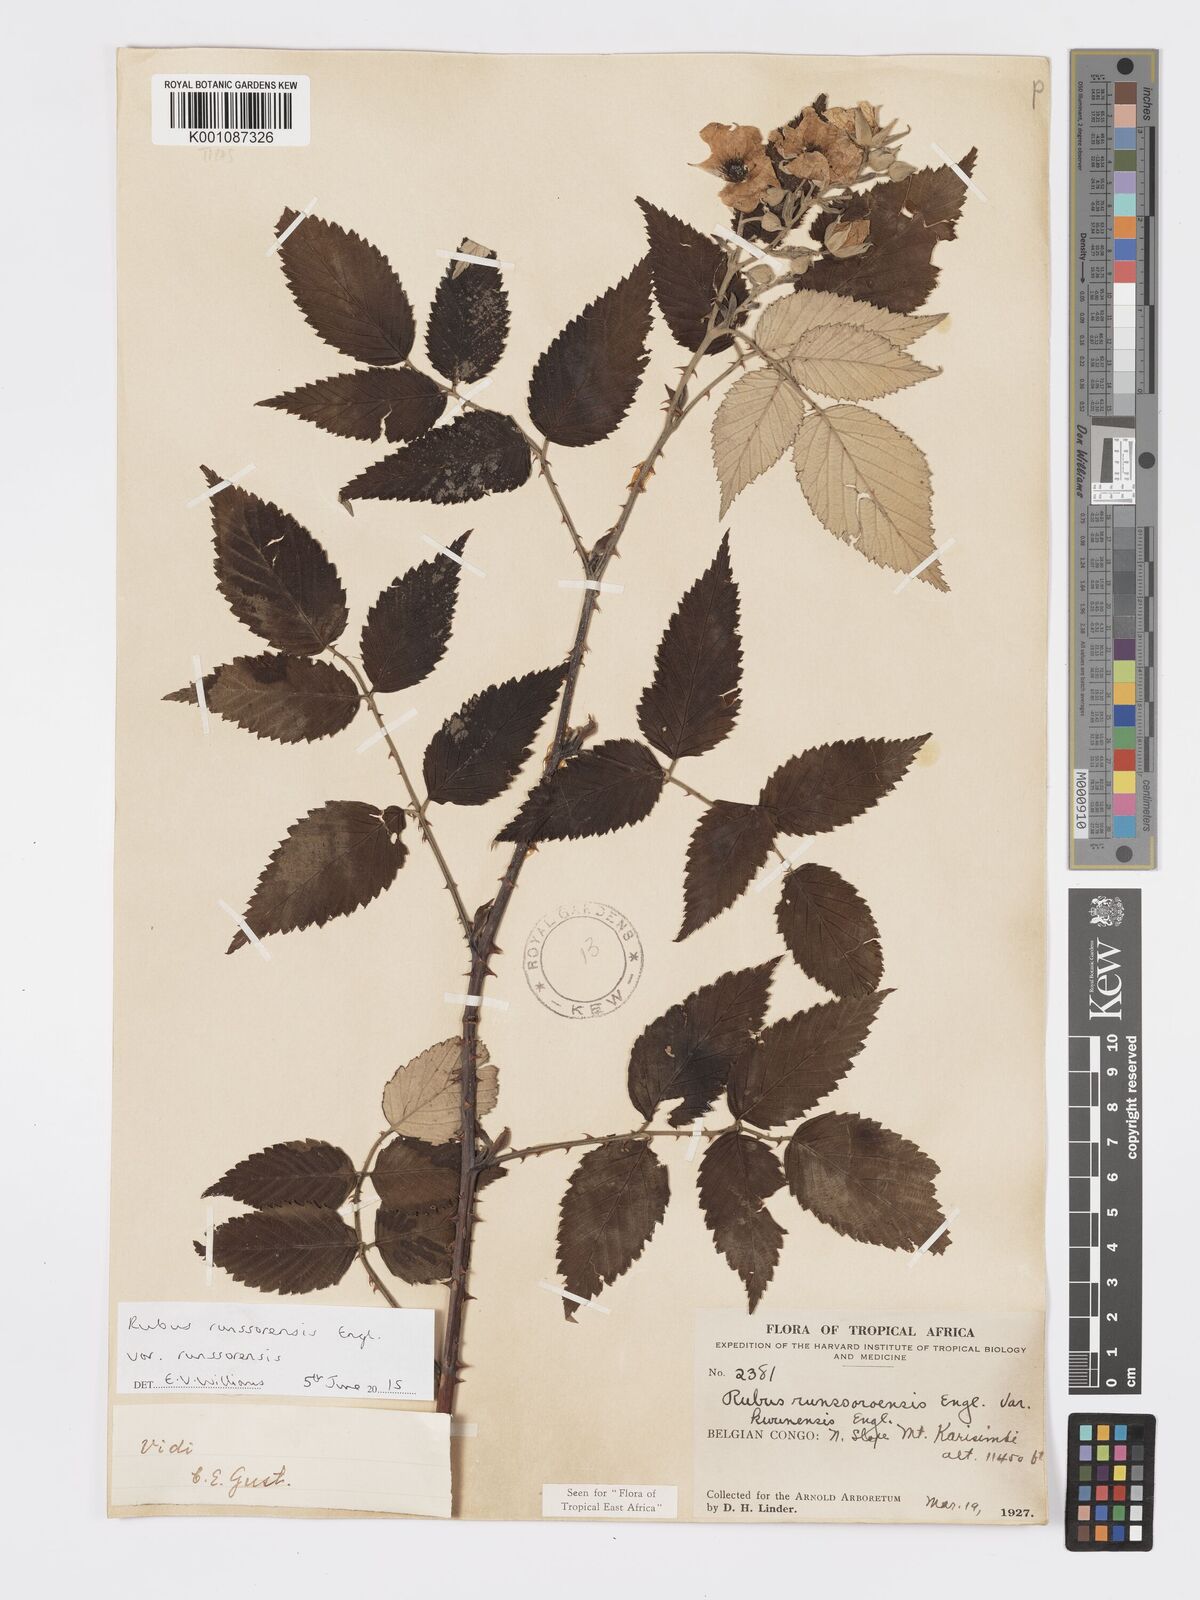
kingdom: Plantae
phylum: Tracheophyta
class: Magnoliopsida
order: Rosales
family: Rosaceae
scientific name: Rosaceae
